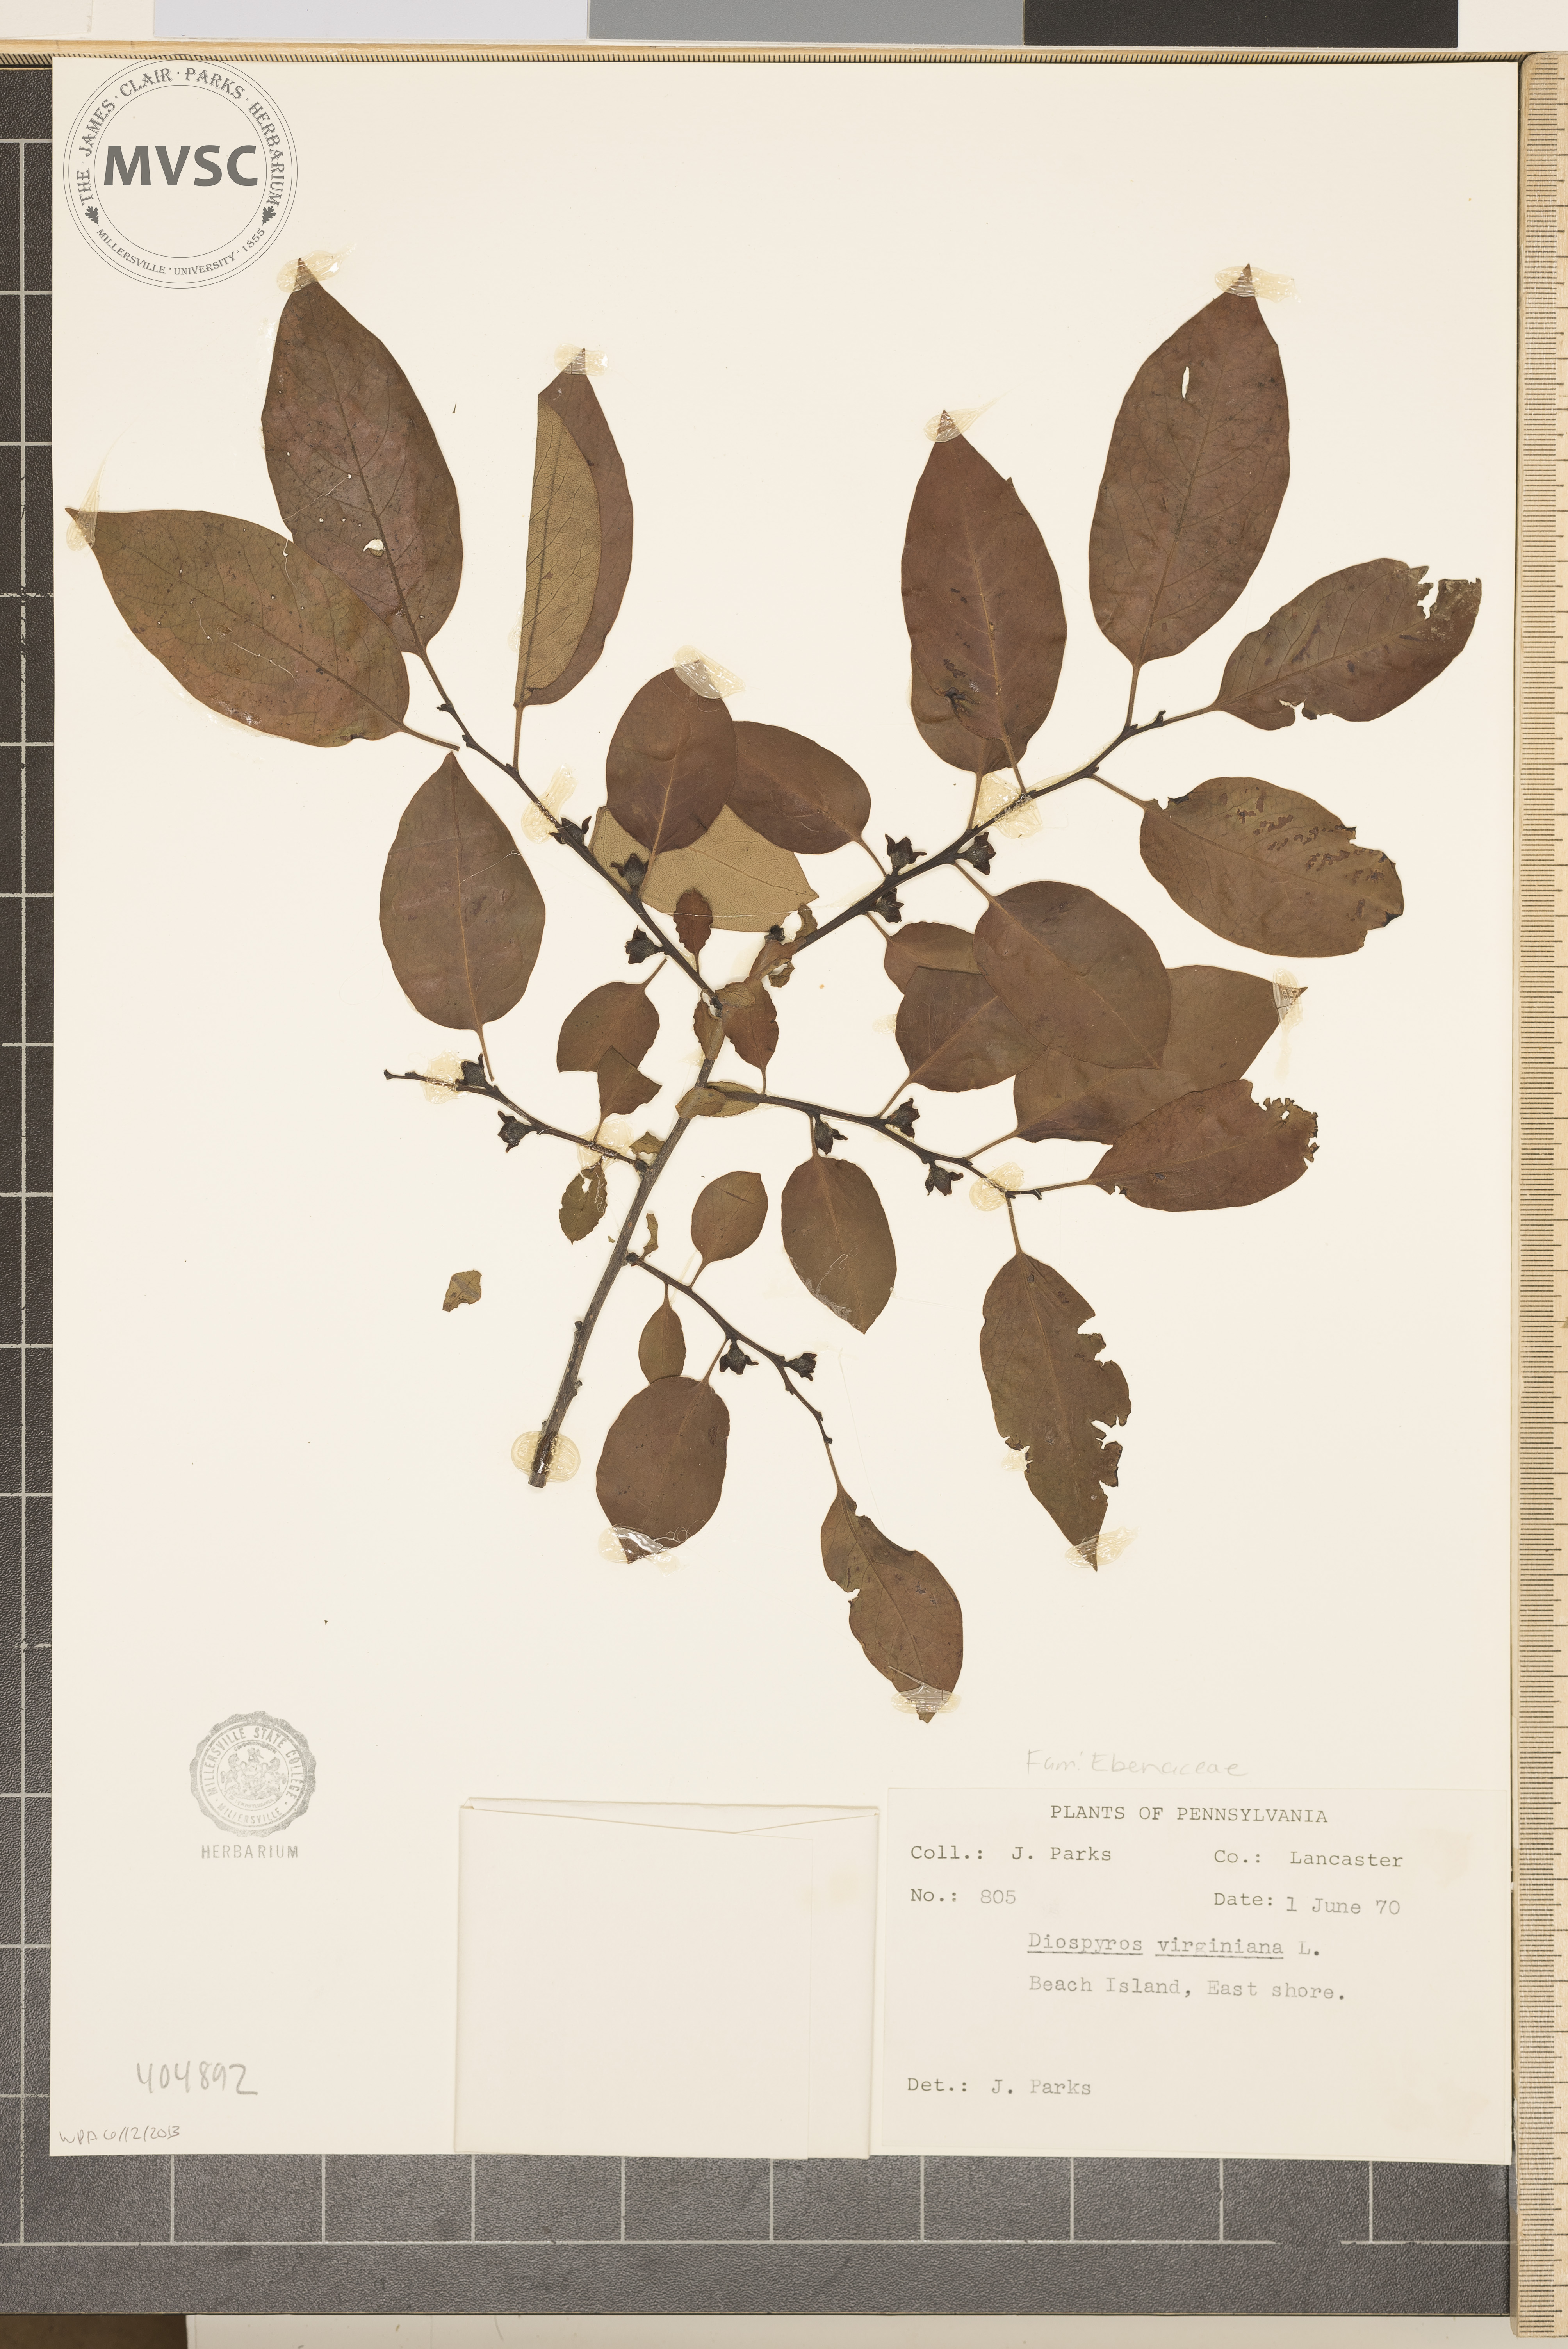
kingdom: Plantae
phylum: Tracheophyta
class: Magnoliopsida
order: Ericales
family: Ebenaceae
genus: Diospyros
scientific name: Diospyros virginiana
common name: Persimmon
